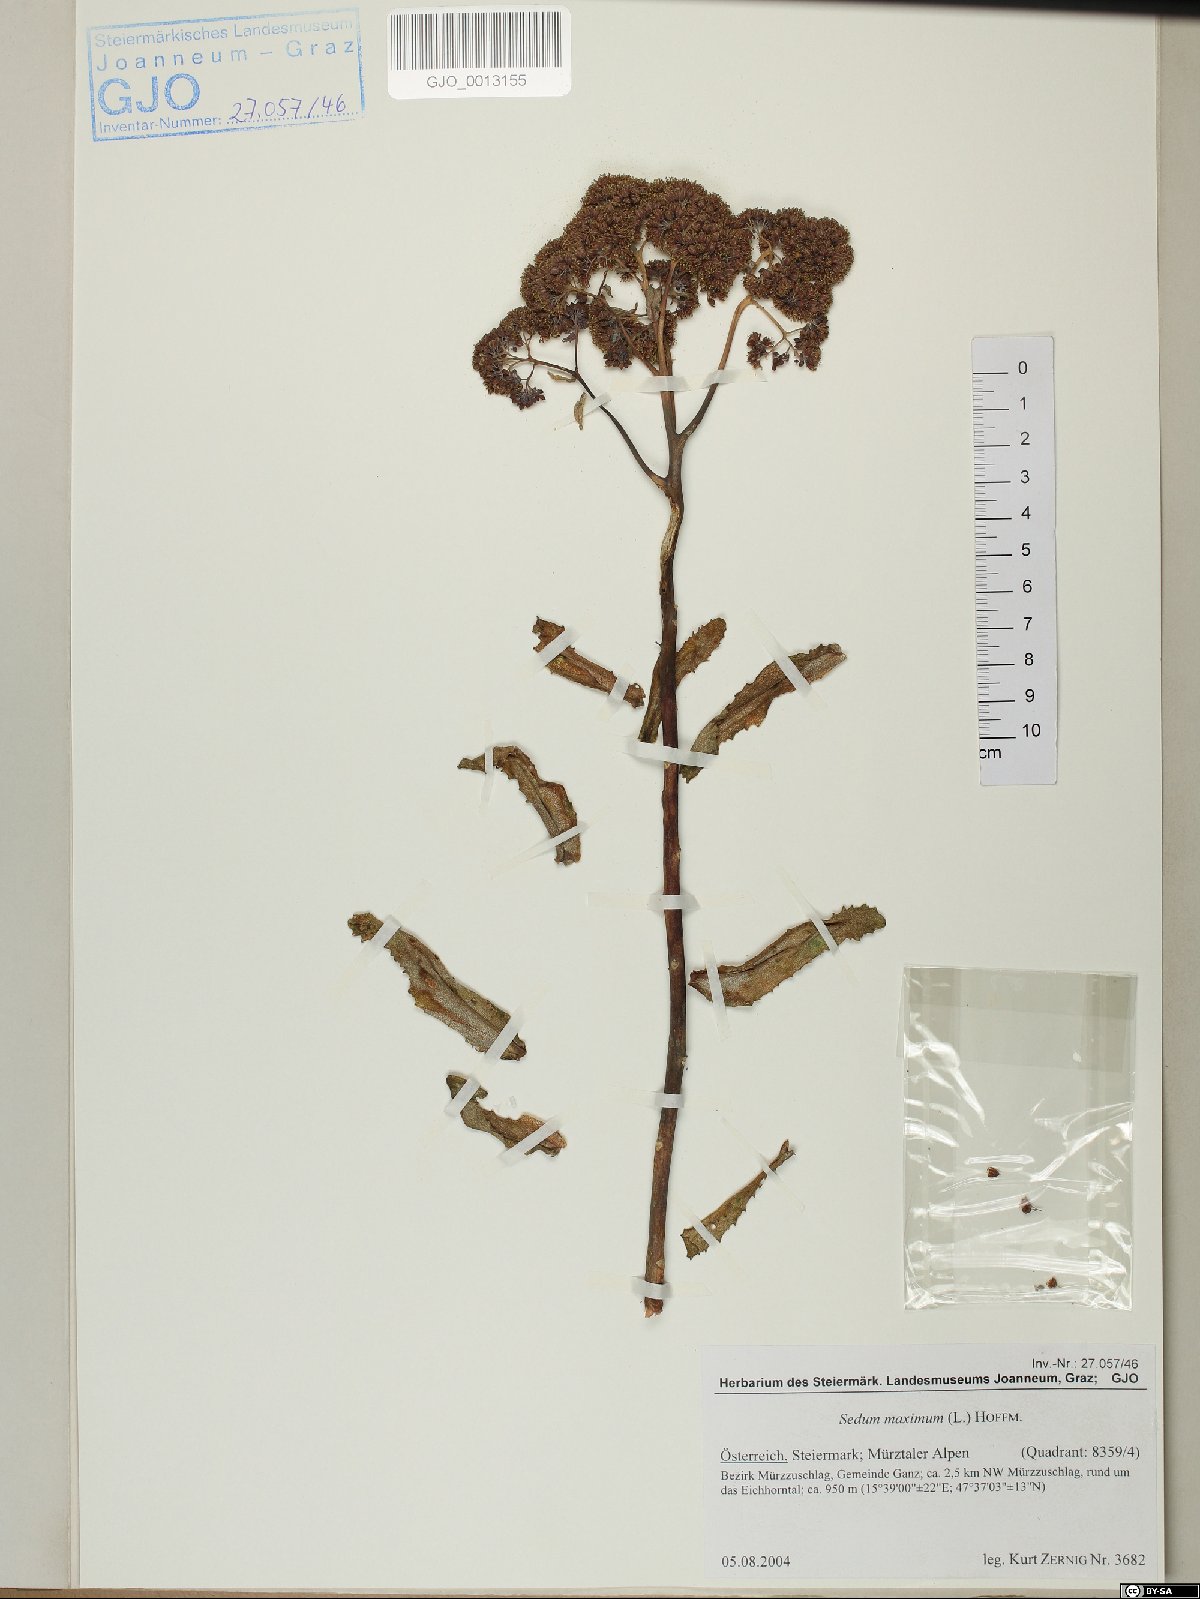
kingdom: Plantae
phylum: Tracheophyta
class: Magnoliopsida
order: Saxifragales
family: Crassulaceae
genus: Hylotelephium
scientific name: Hylotelephium maximum
